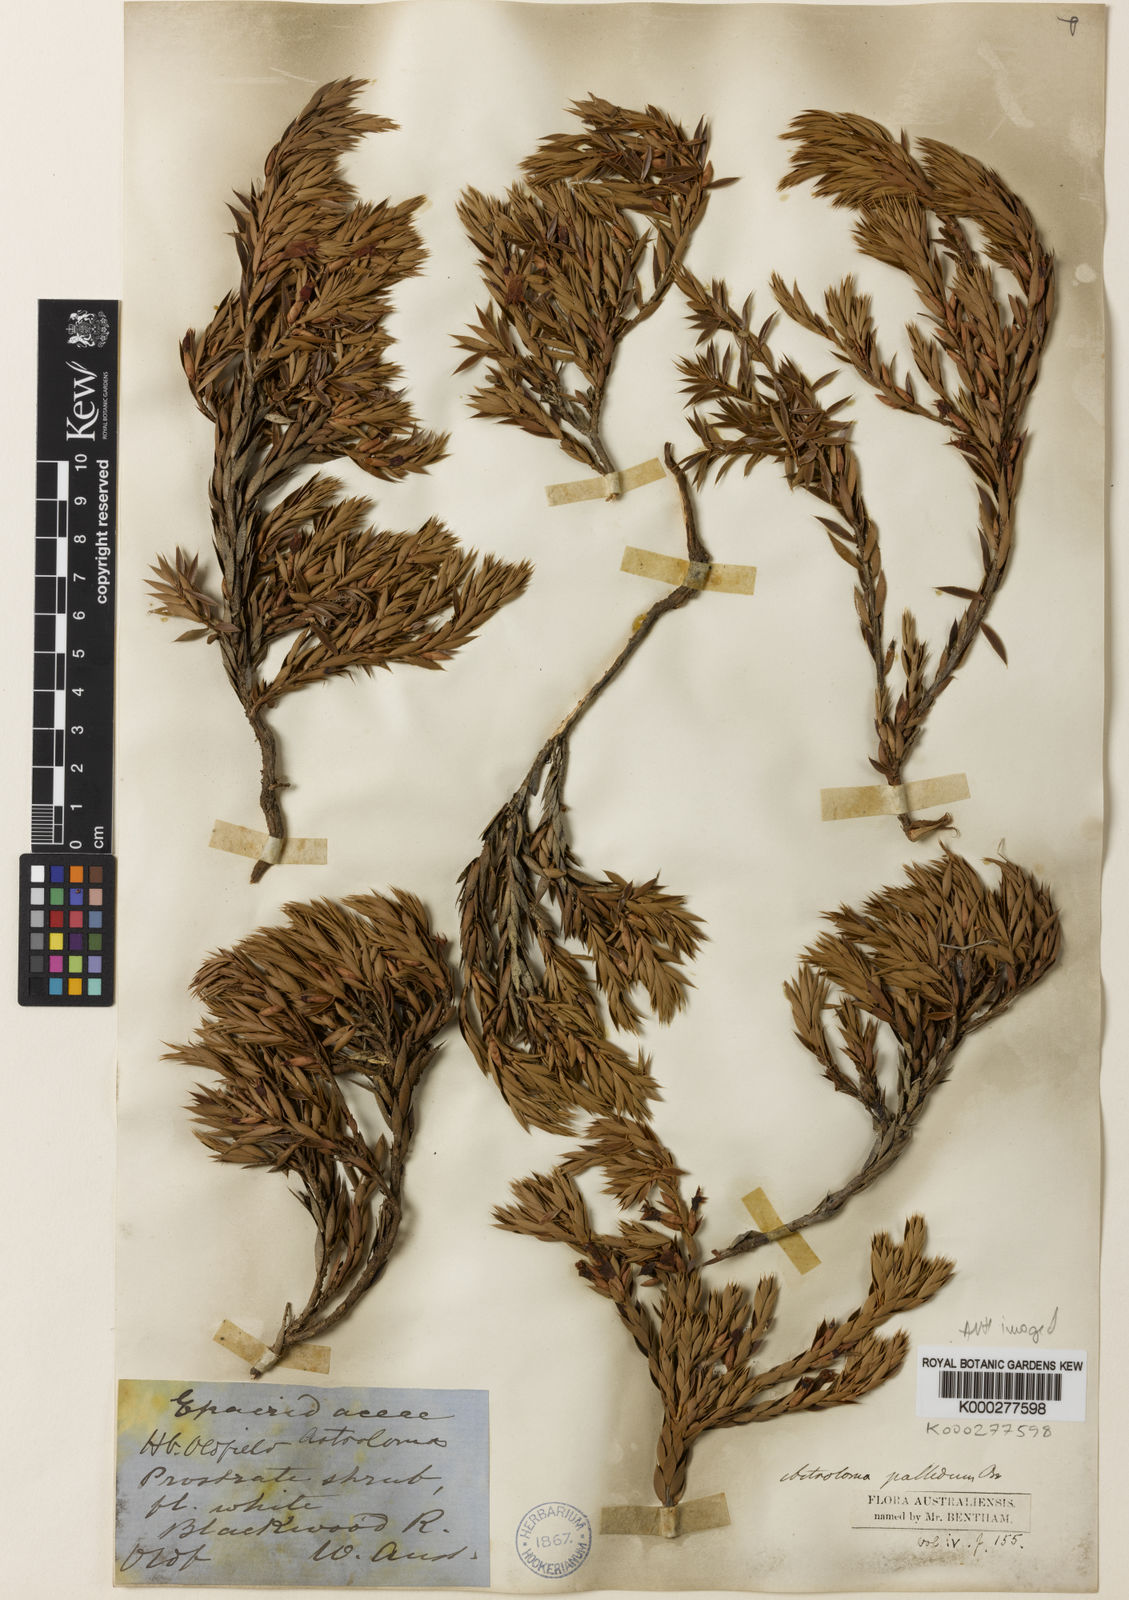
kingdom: Plantae
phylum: Tracheophyta
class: Magnoliopsida
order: Ericales
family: Ericaceae
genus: Styphelia
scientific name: Styphelia pallida
